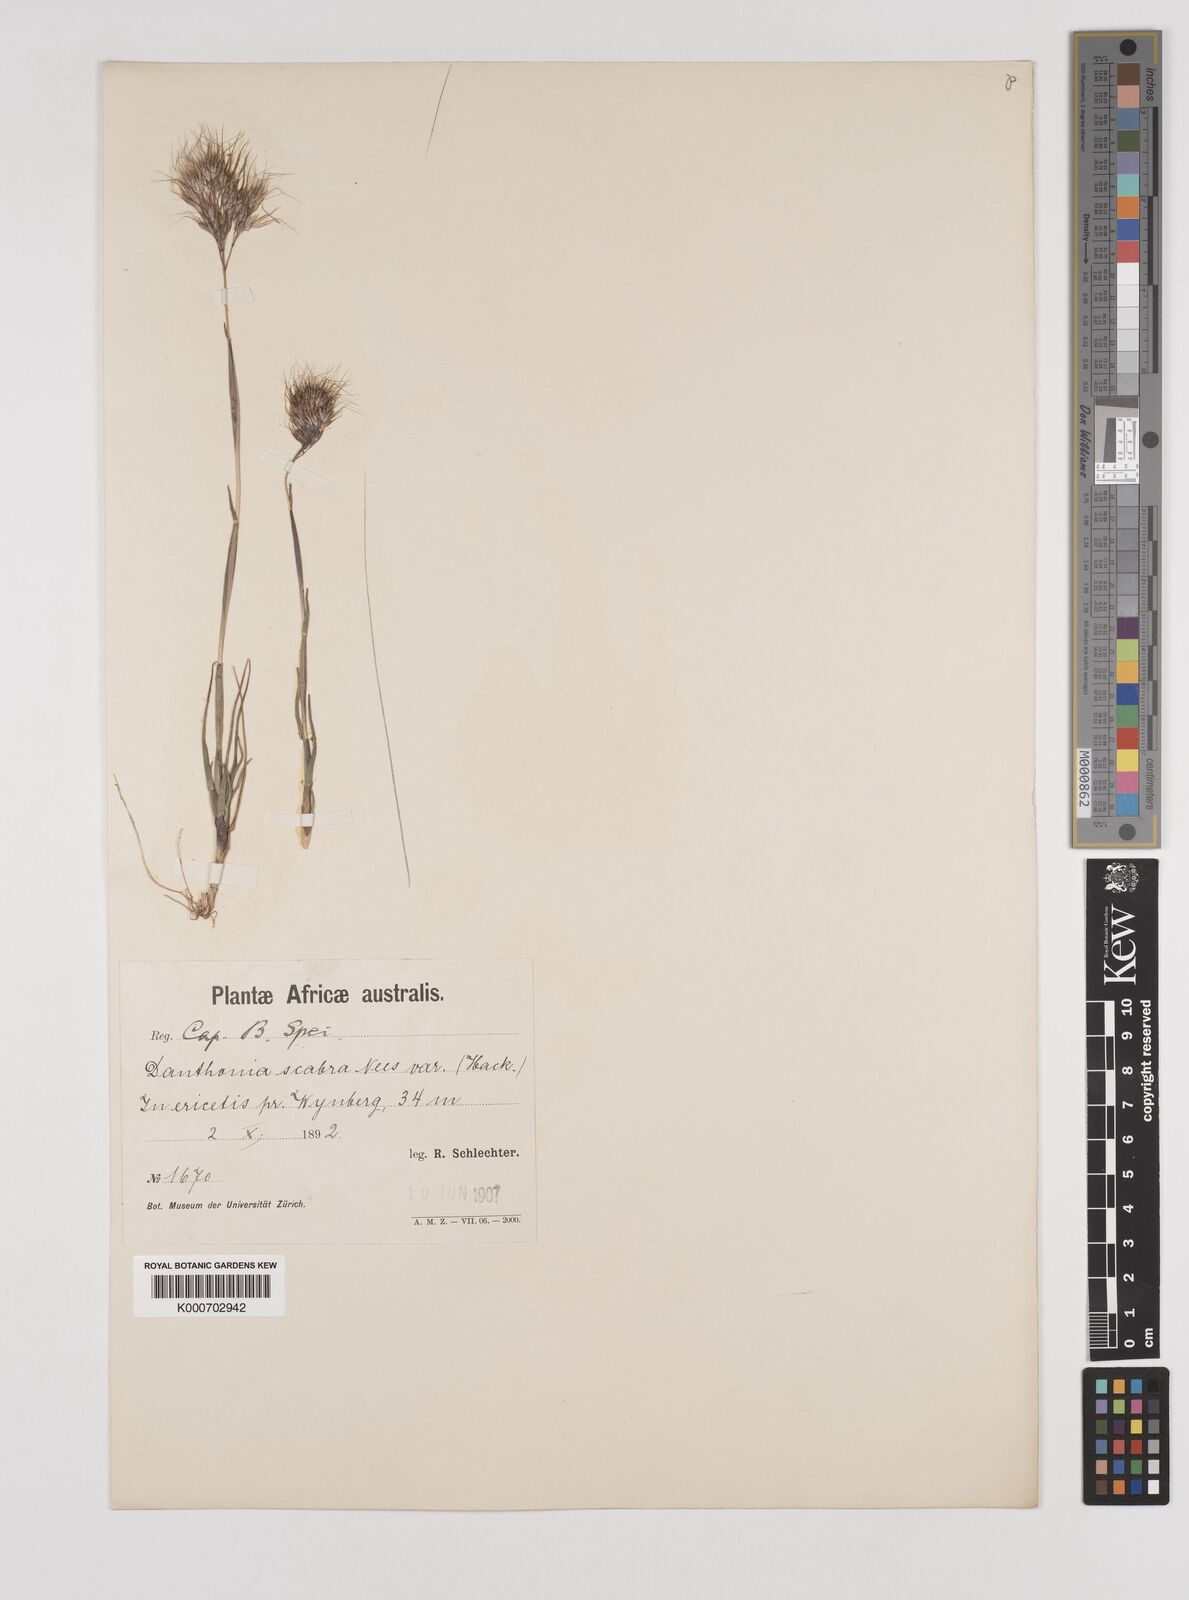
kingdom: Plantae
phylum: Tracheophyta
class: Liliopsida
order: Poales
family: Poaceae
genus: Pentameris
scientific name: Pentameris scabra
